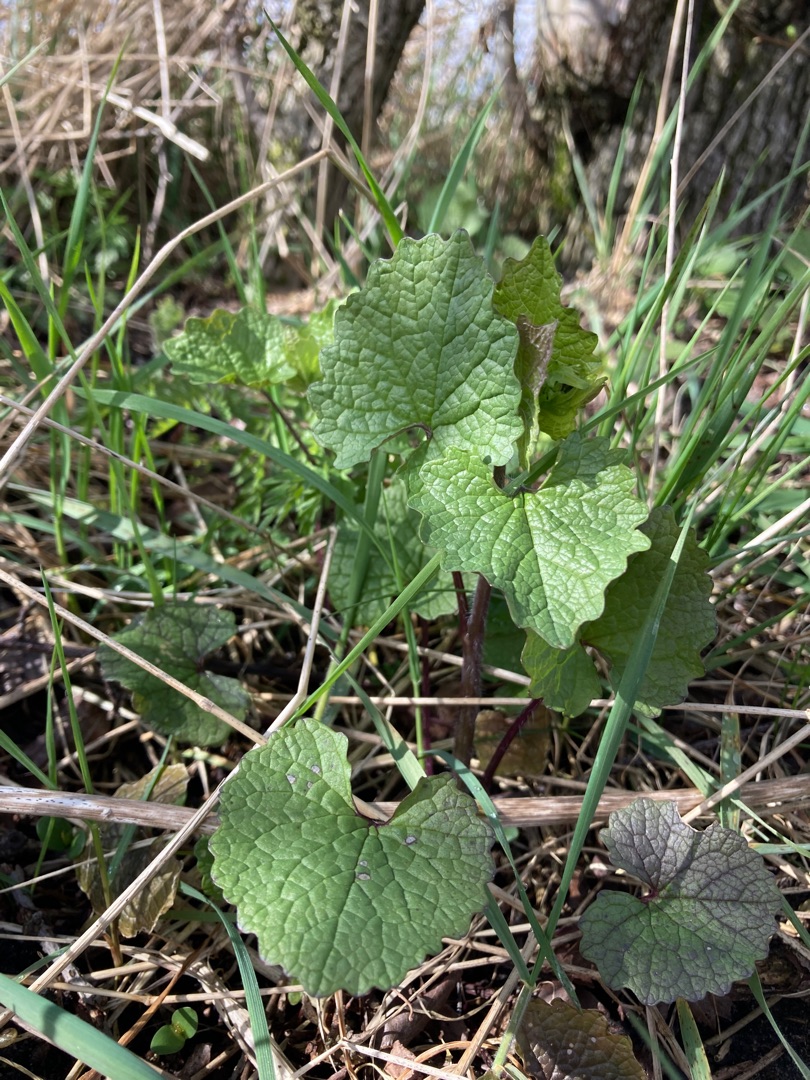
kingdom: Plantae
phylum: Tracheophyta
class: Magnoliopsida
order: Brassicales
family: Brassicaceae
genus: Alliaria
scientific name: Alliaria petiolata
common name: Løgkarse
